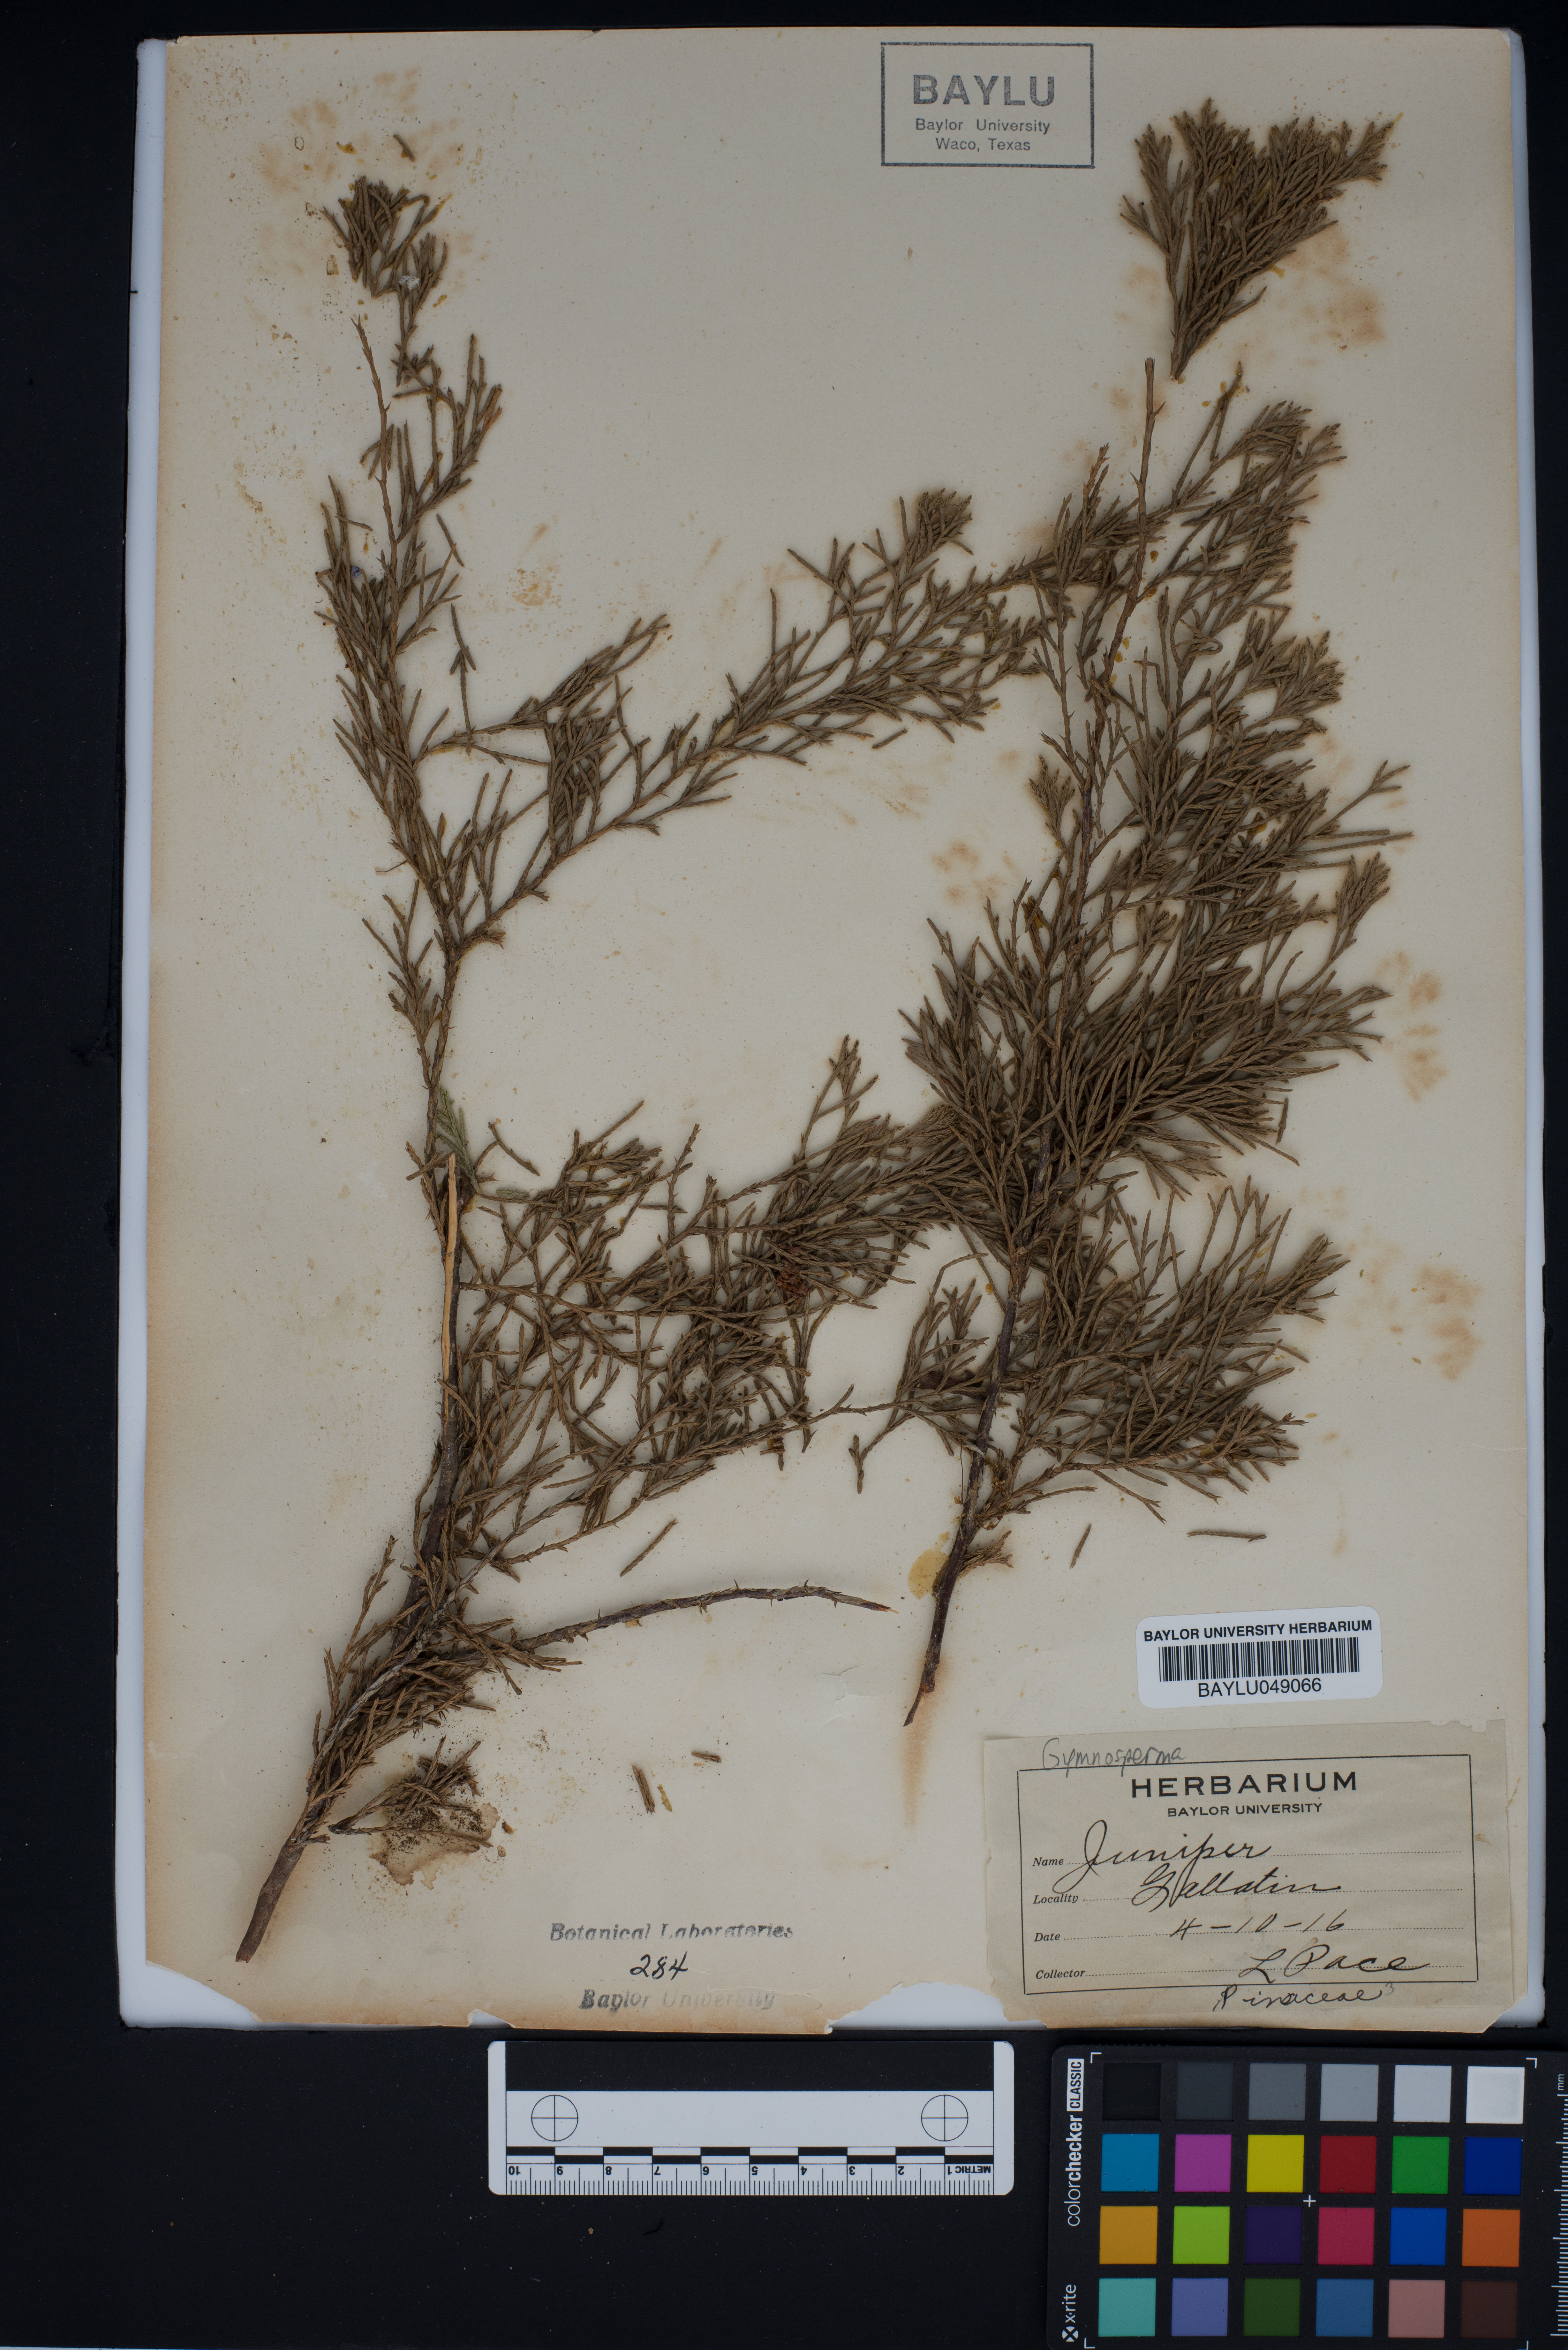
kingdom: Plantae
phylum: Tracheophyta
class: Pinopsida
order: Pinales
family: Cupressaceae
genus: Juniperus
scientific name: Juniperus
